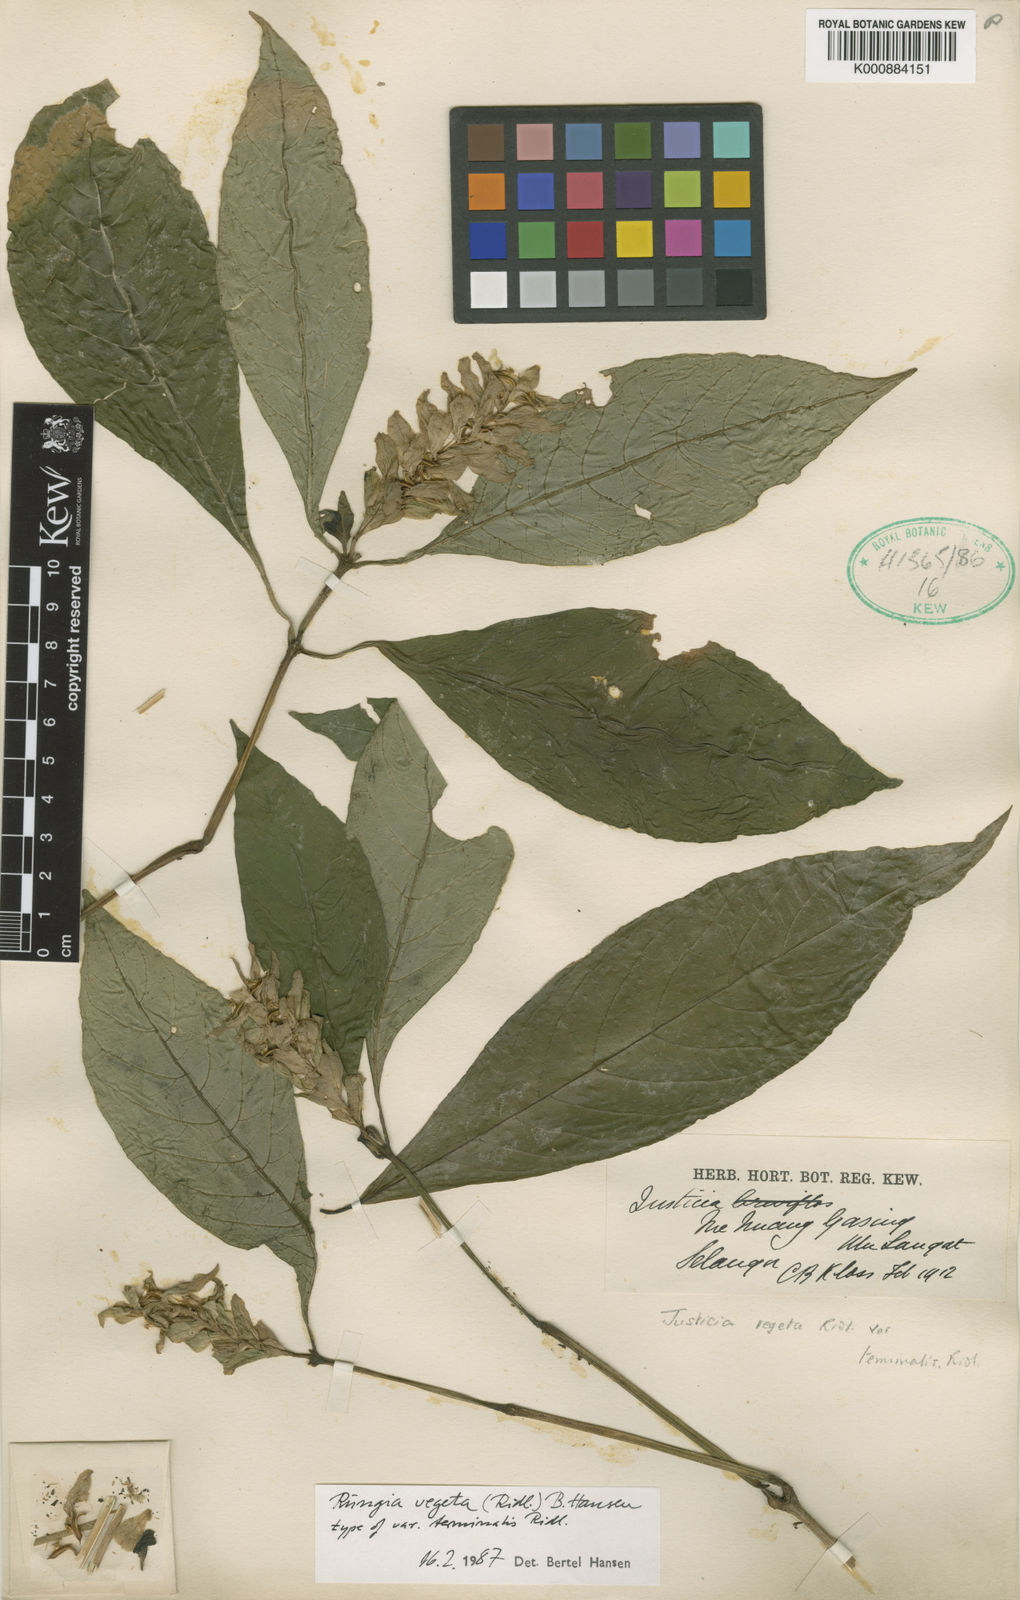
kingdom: Plantae
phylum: Tracheophyta
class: Magnoliopsida
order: Lamiales
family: Acanthaceae
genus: Justicia
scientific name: Justicia
